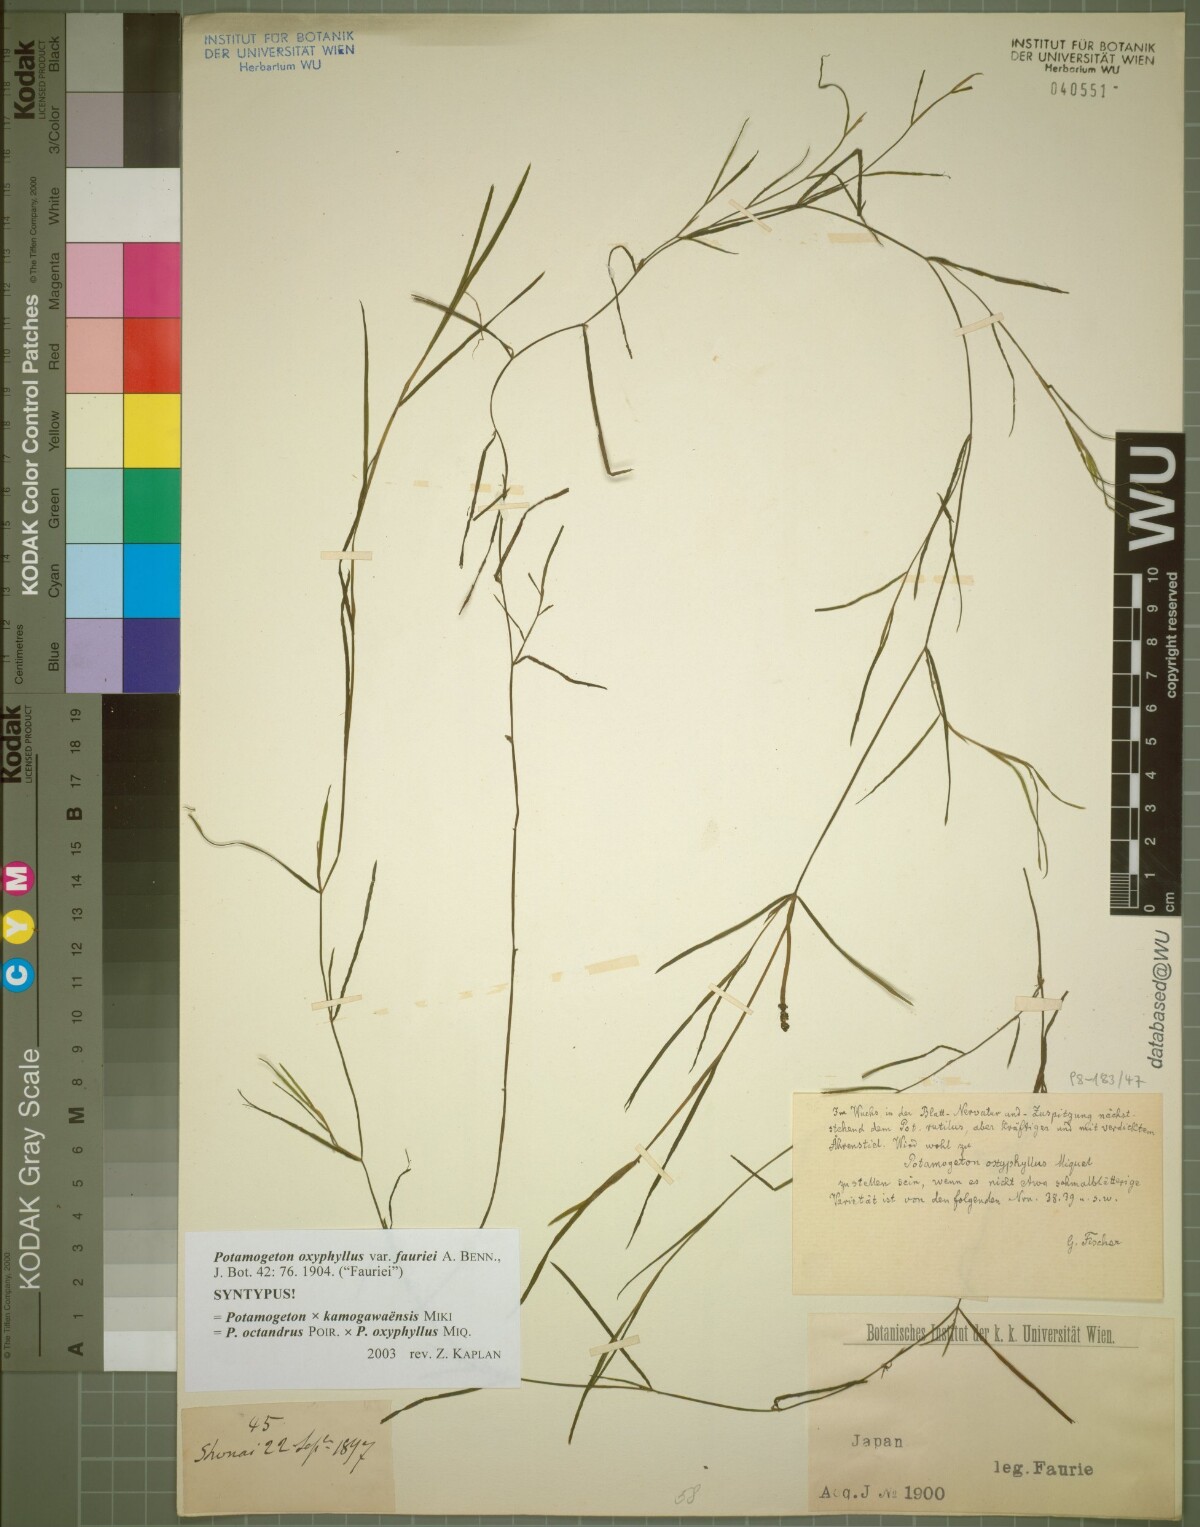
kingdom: Plantae
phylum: Tracheophyta
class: Liliopsida
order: Alismatales
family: Potamogetonaceae
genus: Potamogeton
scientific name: Potamogeton fauriei
